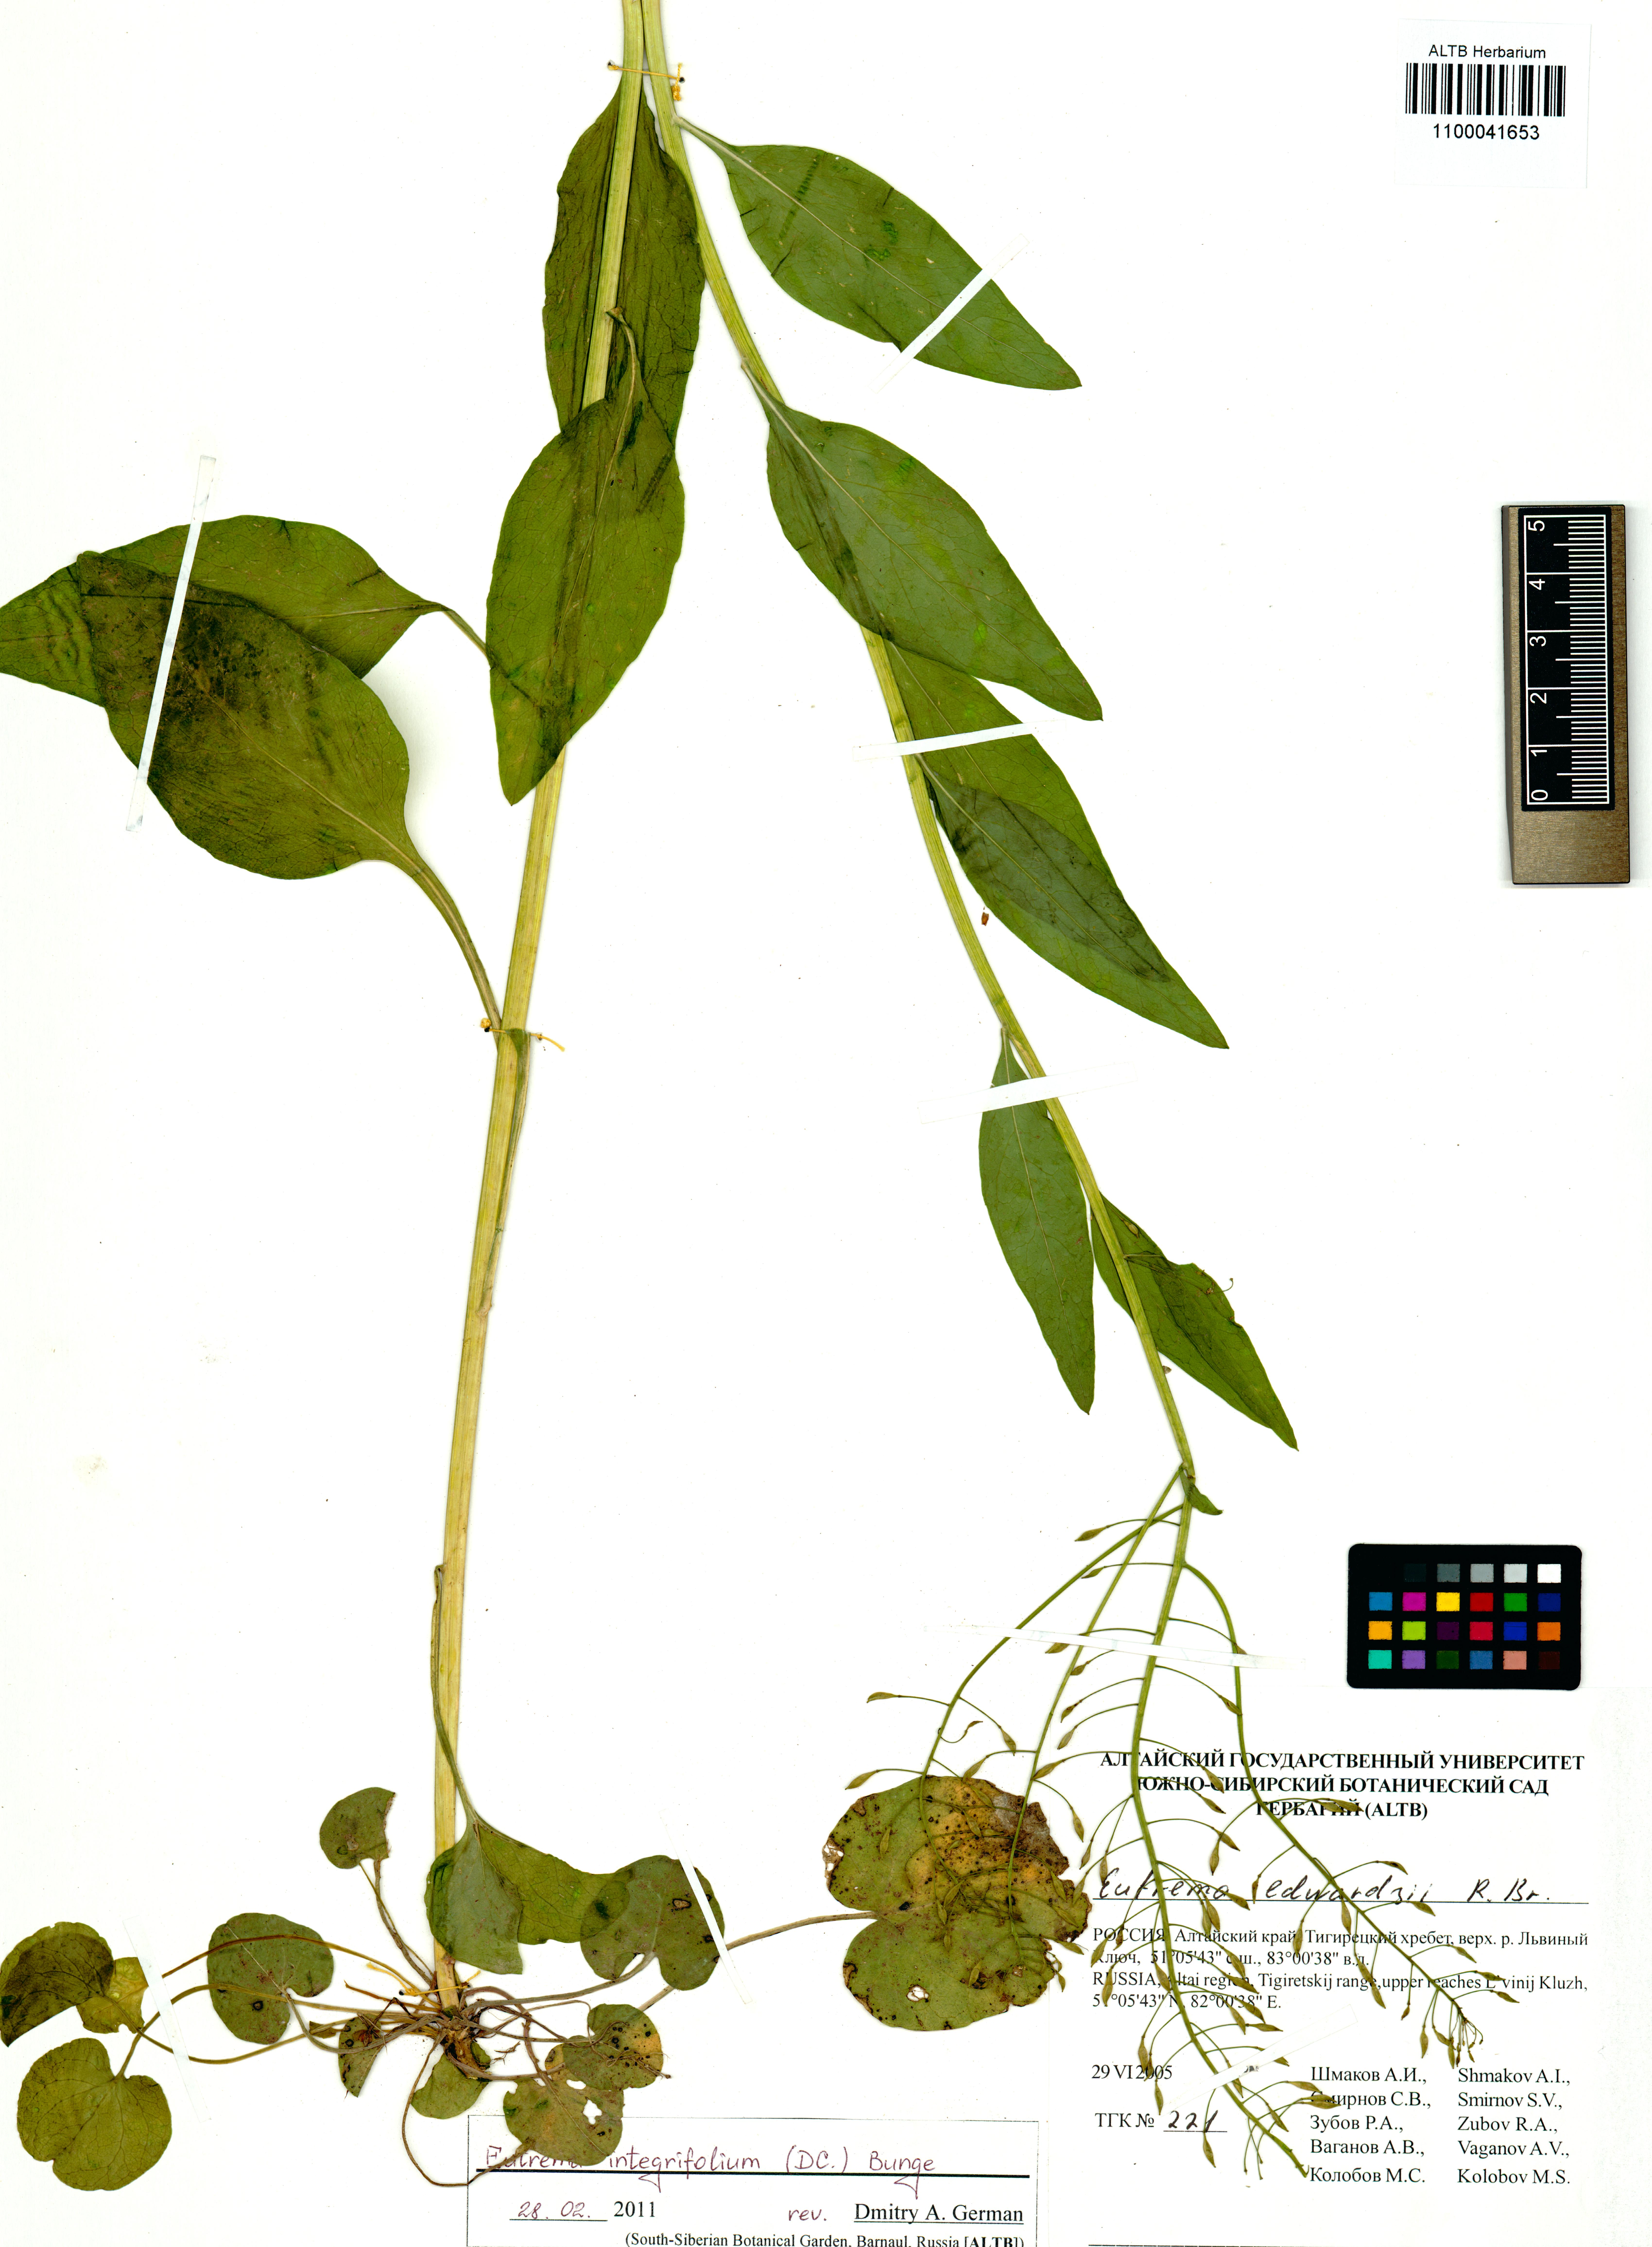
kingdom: Plantae
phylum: Tracheophyta
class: Magnoliopsida
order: Brassicales
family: Brassicaceae
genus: Eutrema
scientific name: Eutrema integrifolium
